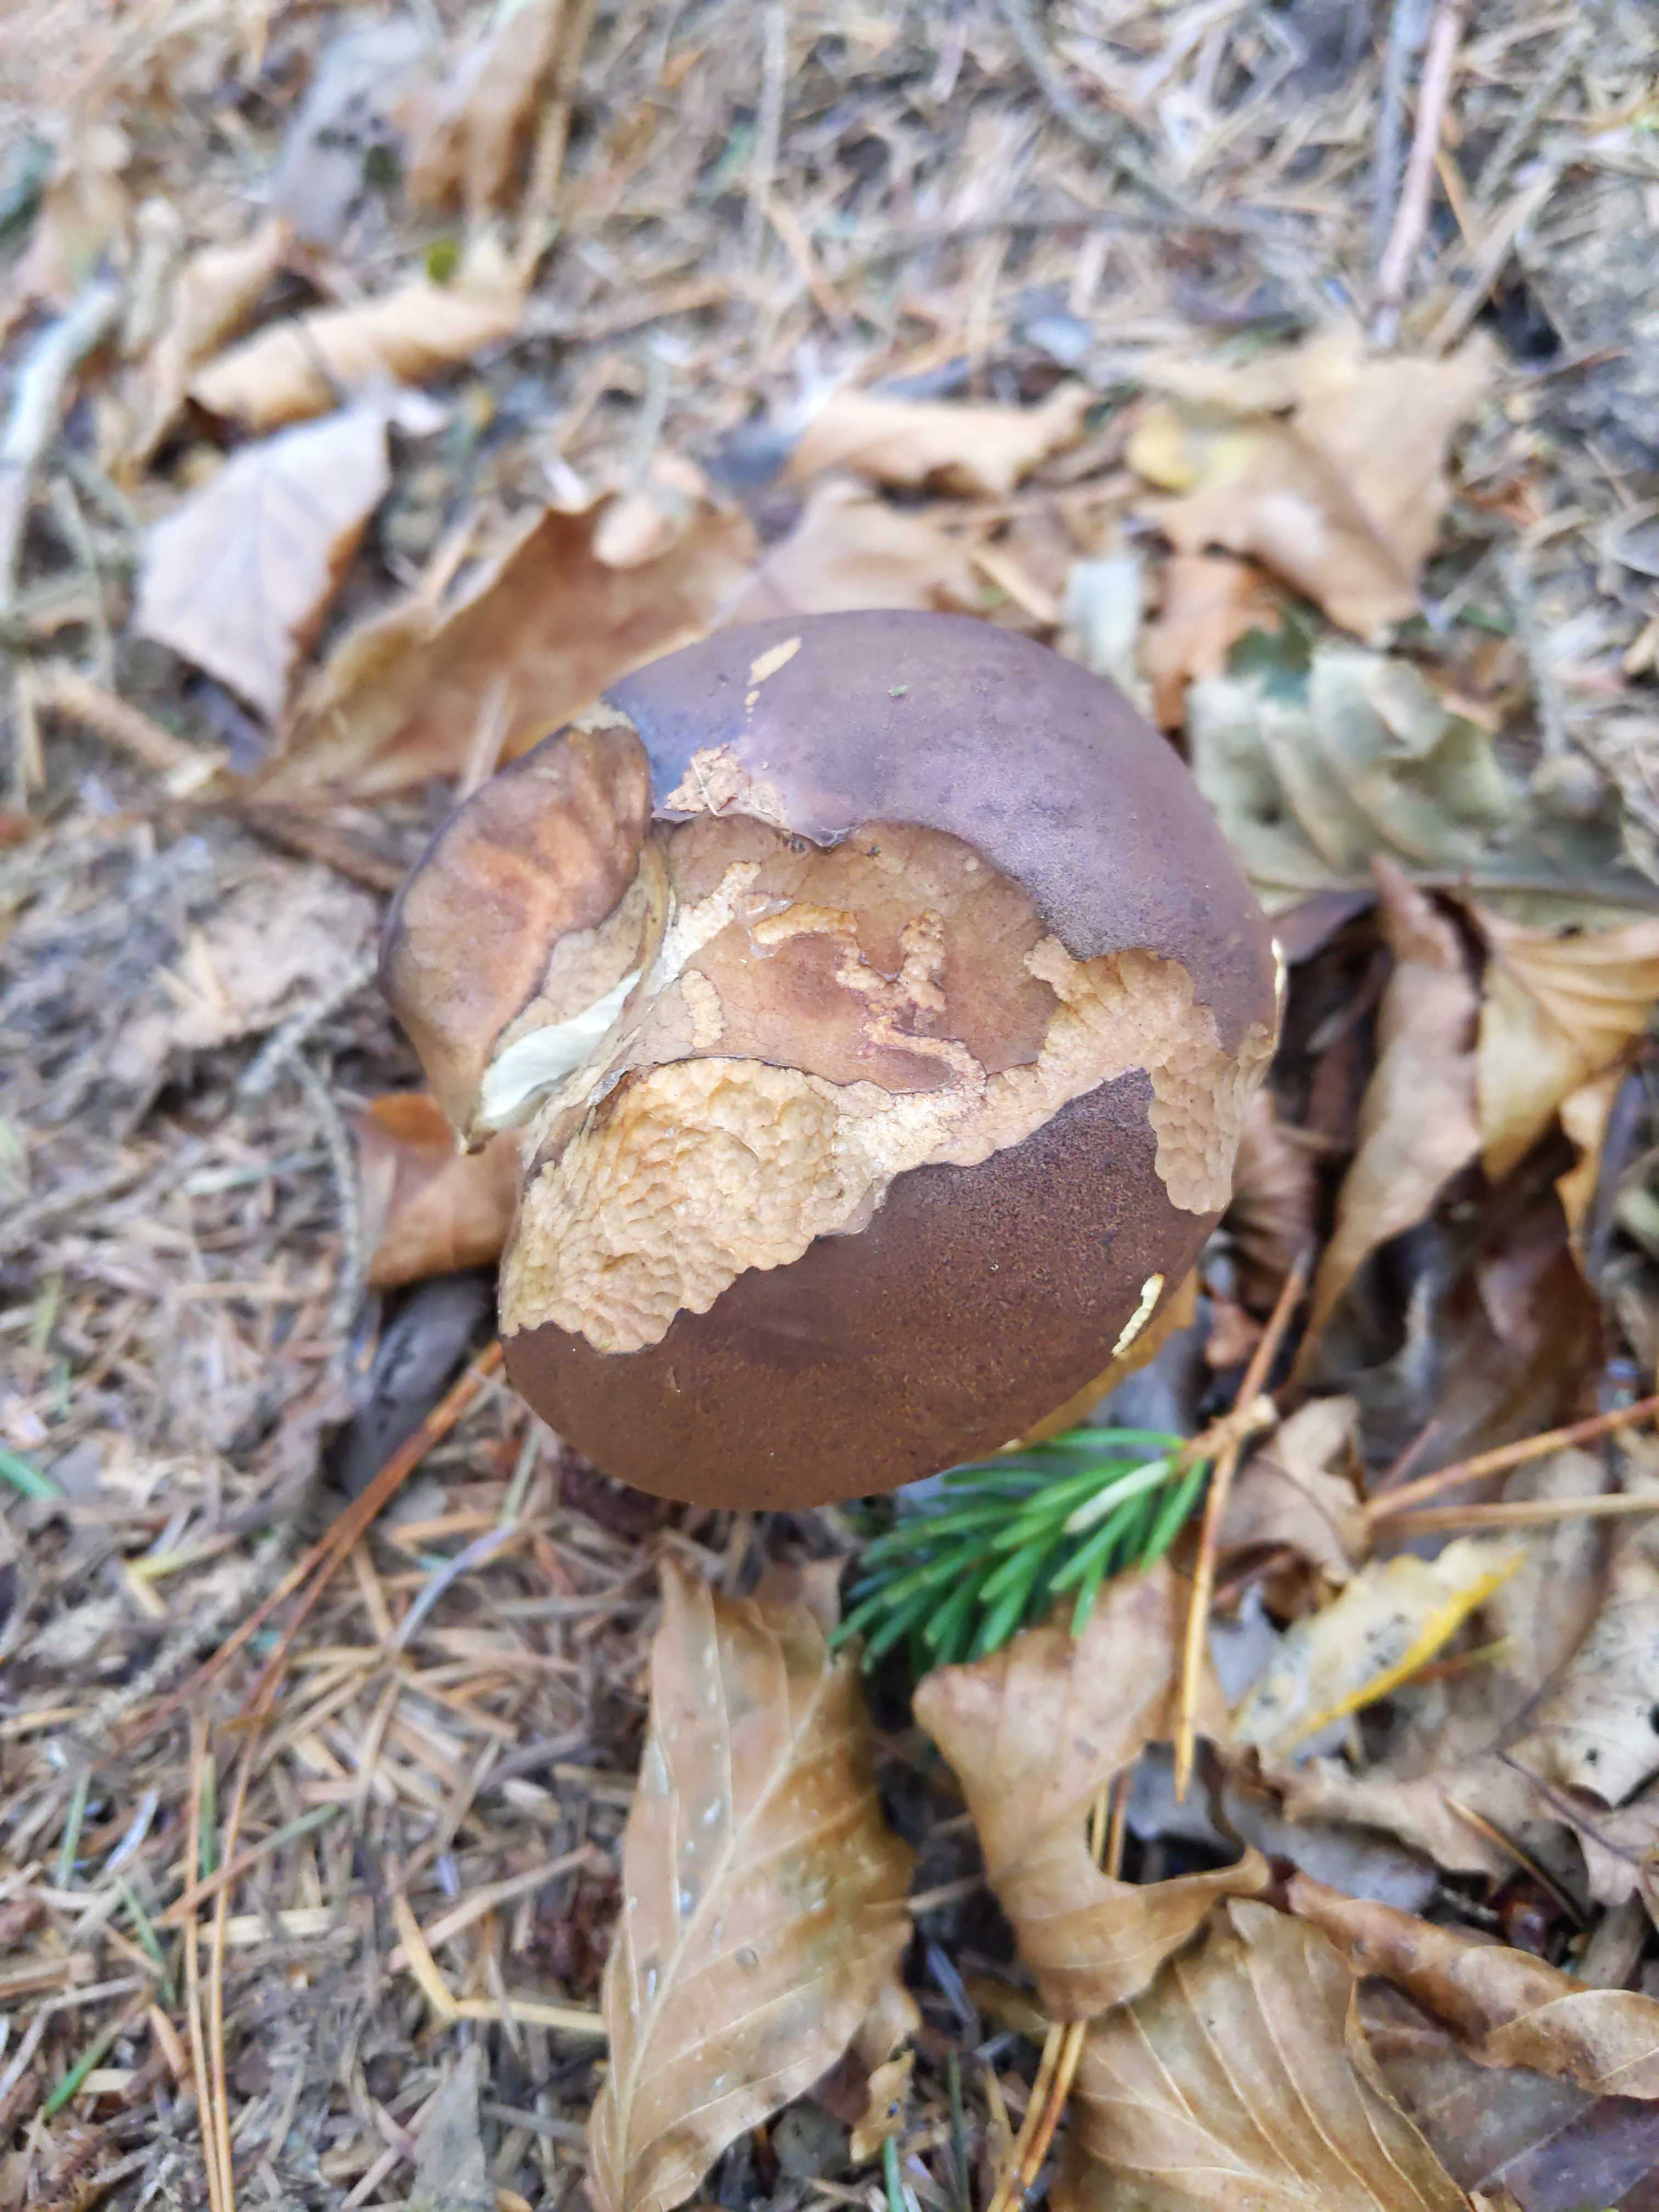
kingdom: Fungi
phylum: Basidiomycota
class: Agaricomycetes
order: Boletales
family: Boletaceae
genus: Imleria
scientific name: Imleria badia
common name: brunstokket rørhat
